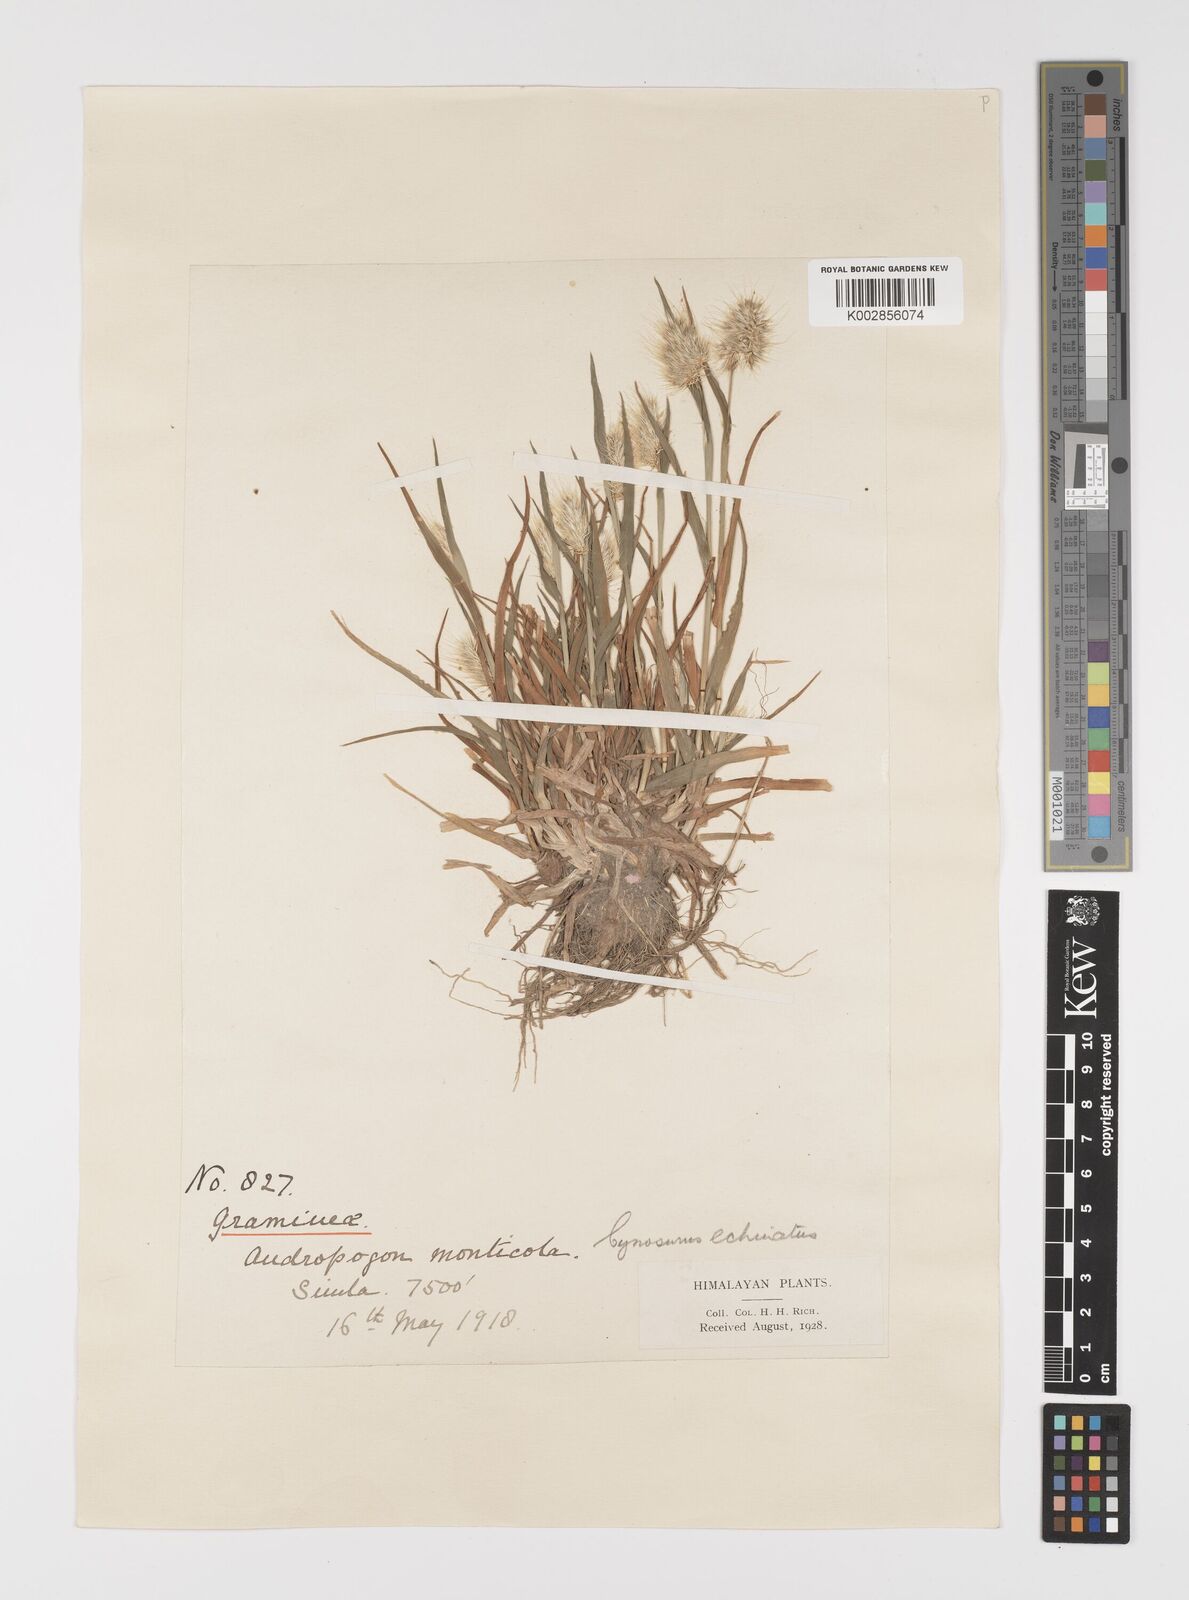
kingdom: Plantae
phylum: Tracheophyta
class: Liliopsida
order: Poales
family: Poaceae
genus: Cynosurus
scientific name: Cynosurus echinatus
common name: Rough dog's-tail
